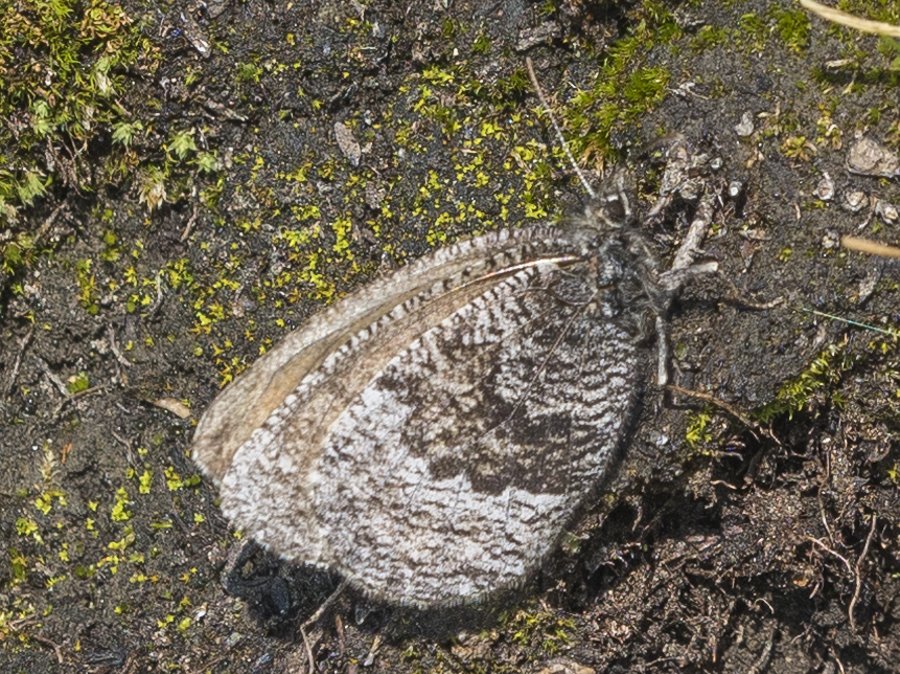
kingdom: Animalia
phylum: Arthropoda
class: Insecta
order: Lepidoptera
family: Nymphalidae
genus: Oeneis
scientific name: Oeneis bore
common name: Polixenes Arctic
